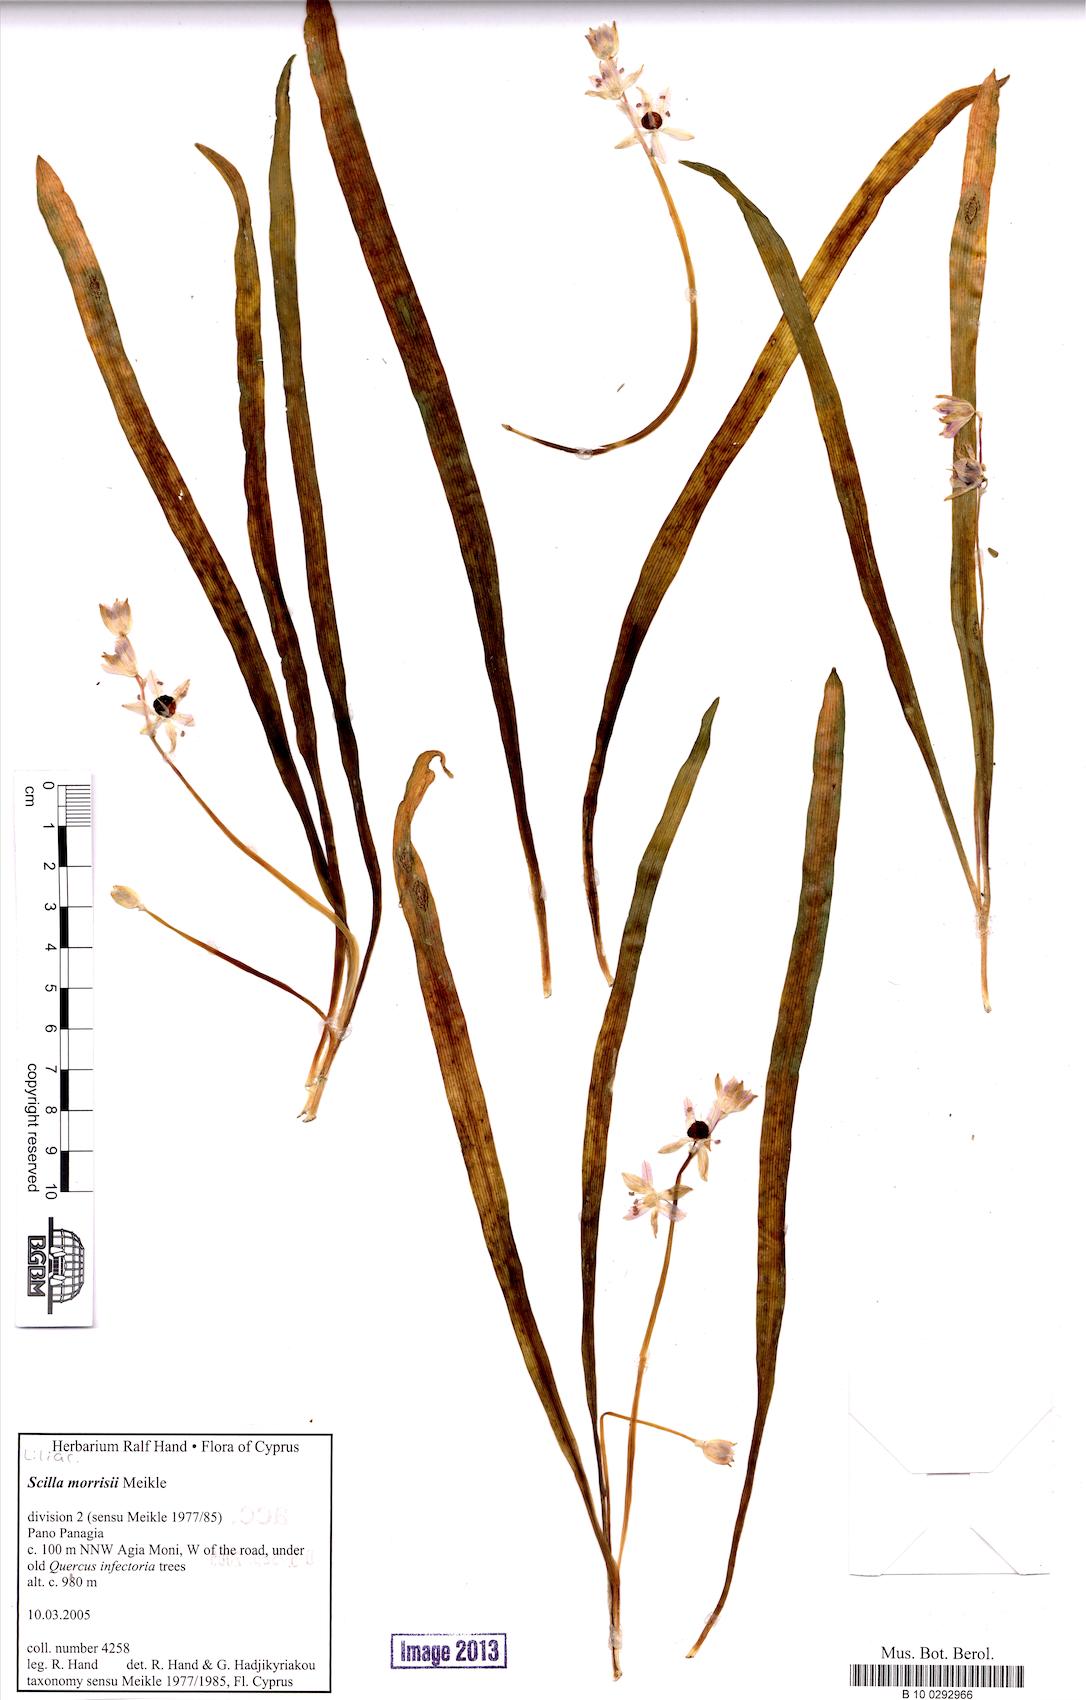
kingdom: Plantae
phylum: Tracheophyta
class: Liliopsida
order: Asparagales
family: Asparagaceae
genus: Scilla
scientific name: Scilla morrisii
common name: Morris squill
